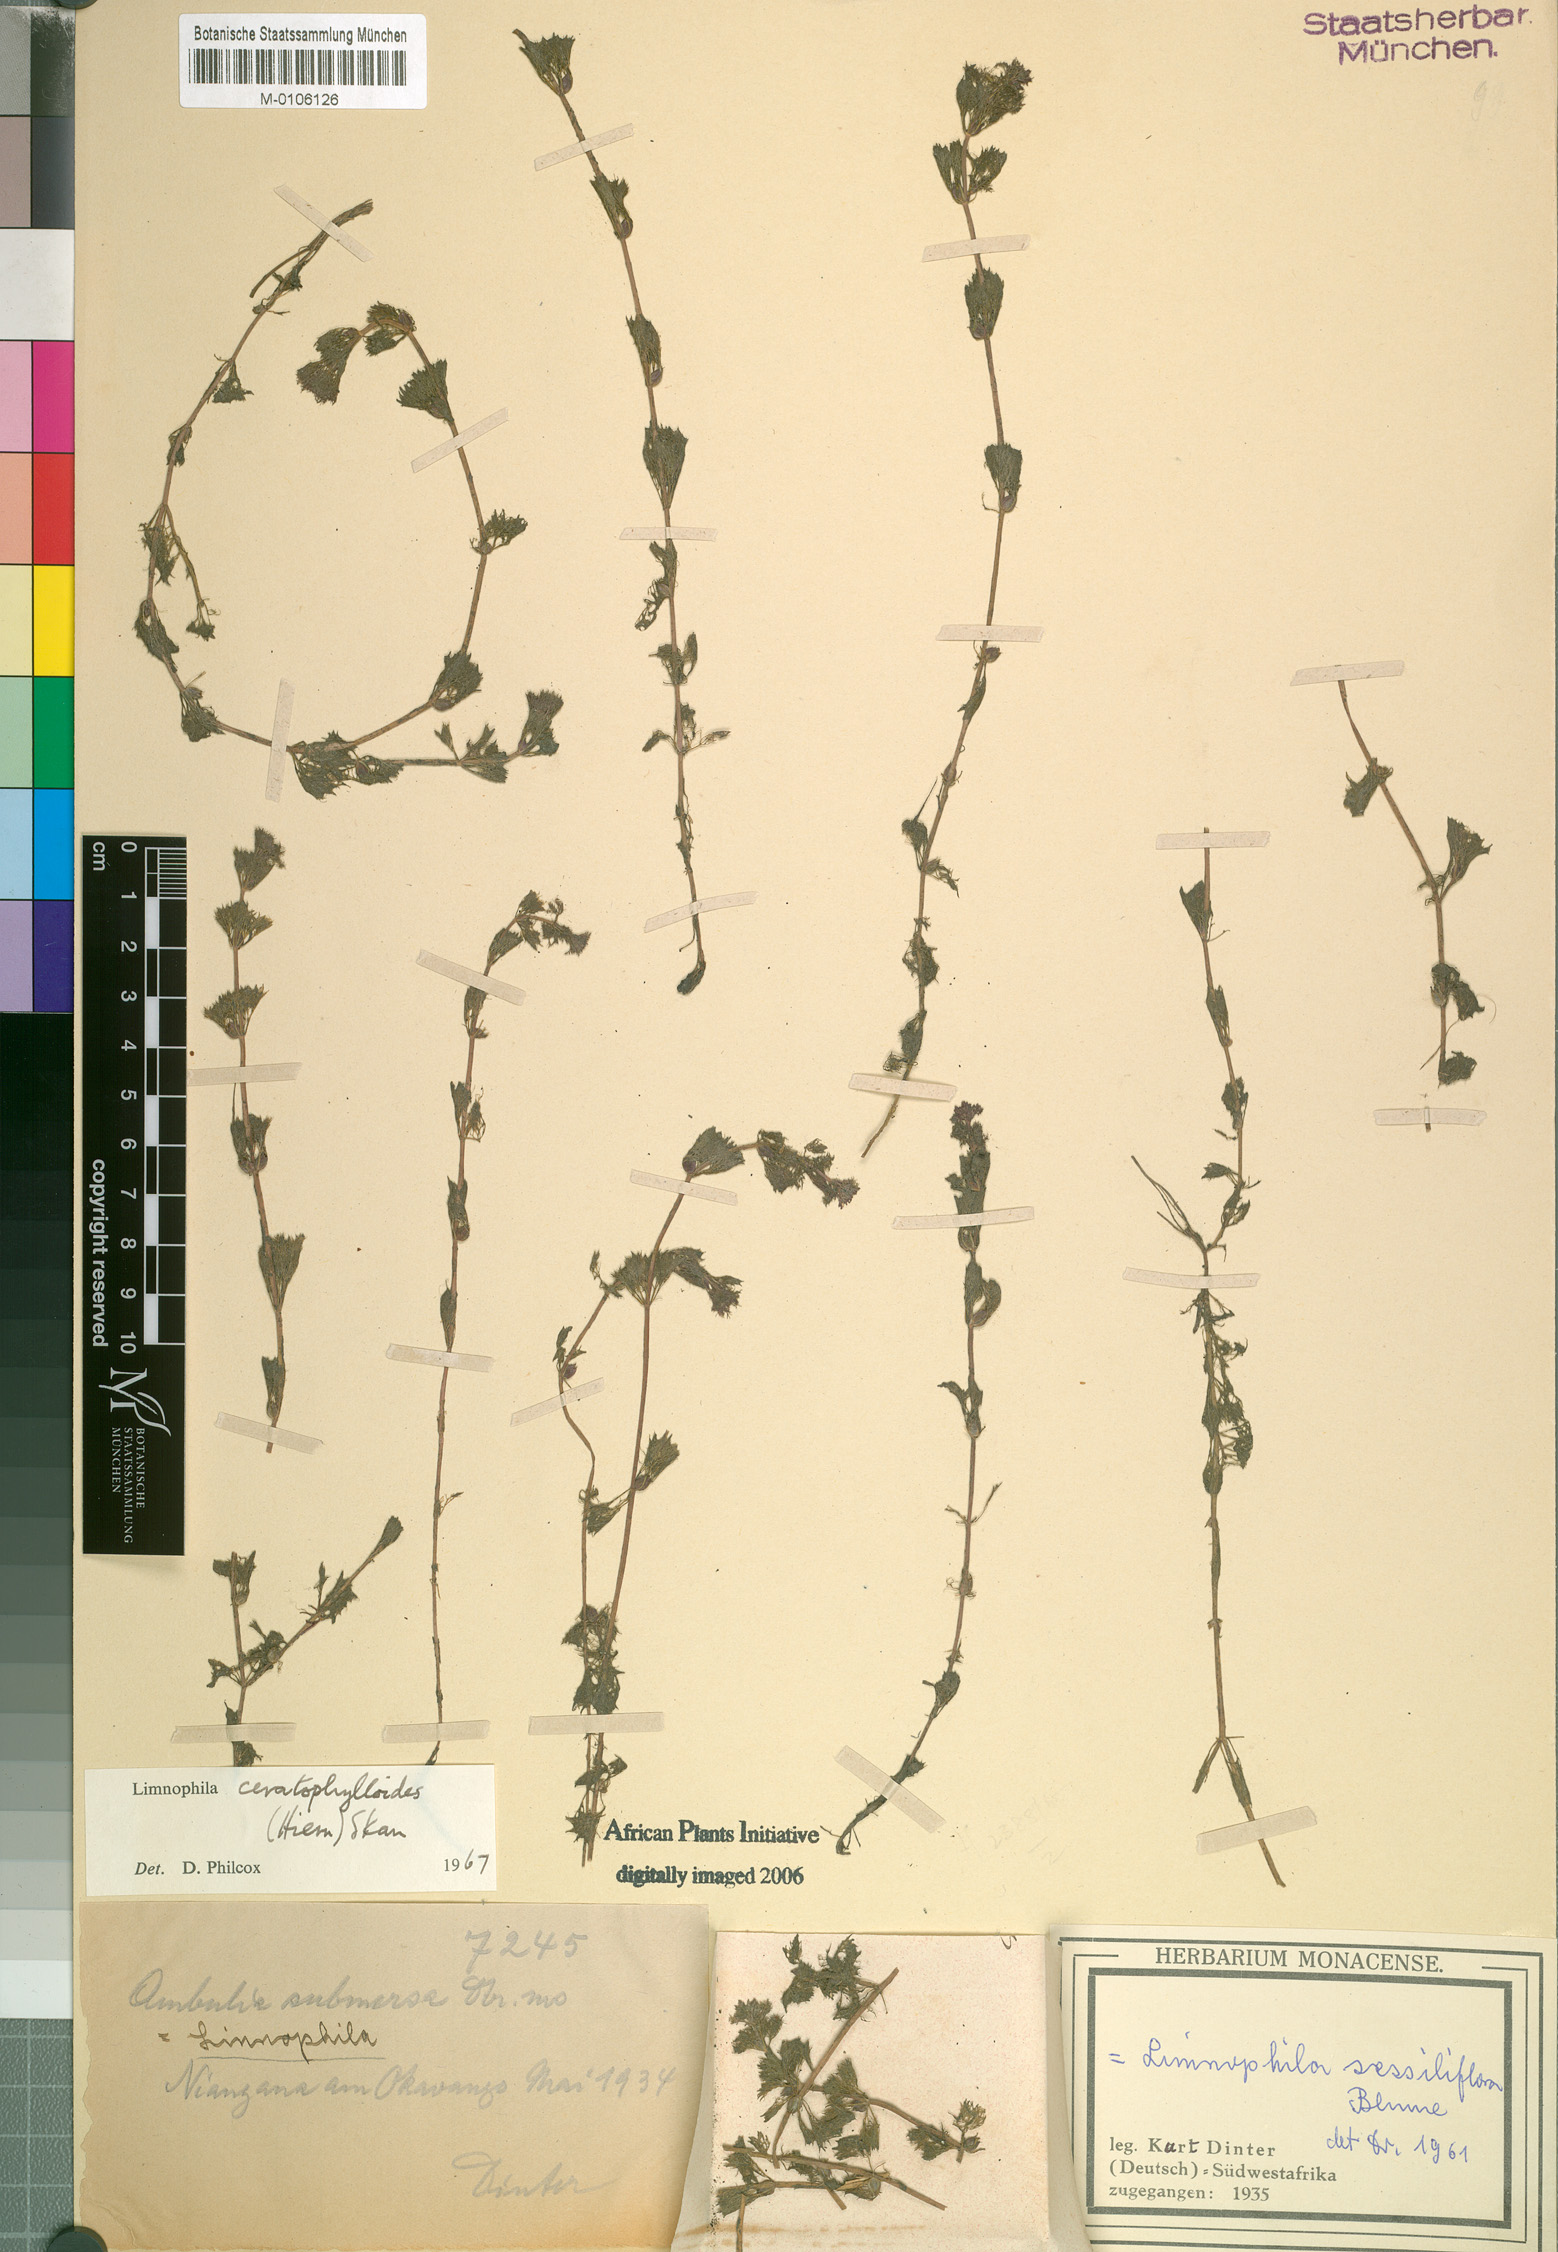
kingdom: Plantae
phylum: Tracheophyta
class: Magnoliopsida
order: Lamiales
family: Plantaginaceae
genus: Limnophila
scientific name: Limnophila ceratophylloides
